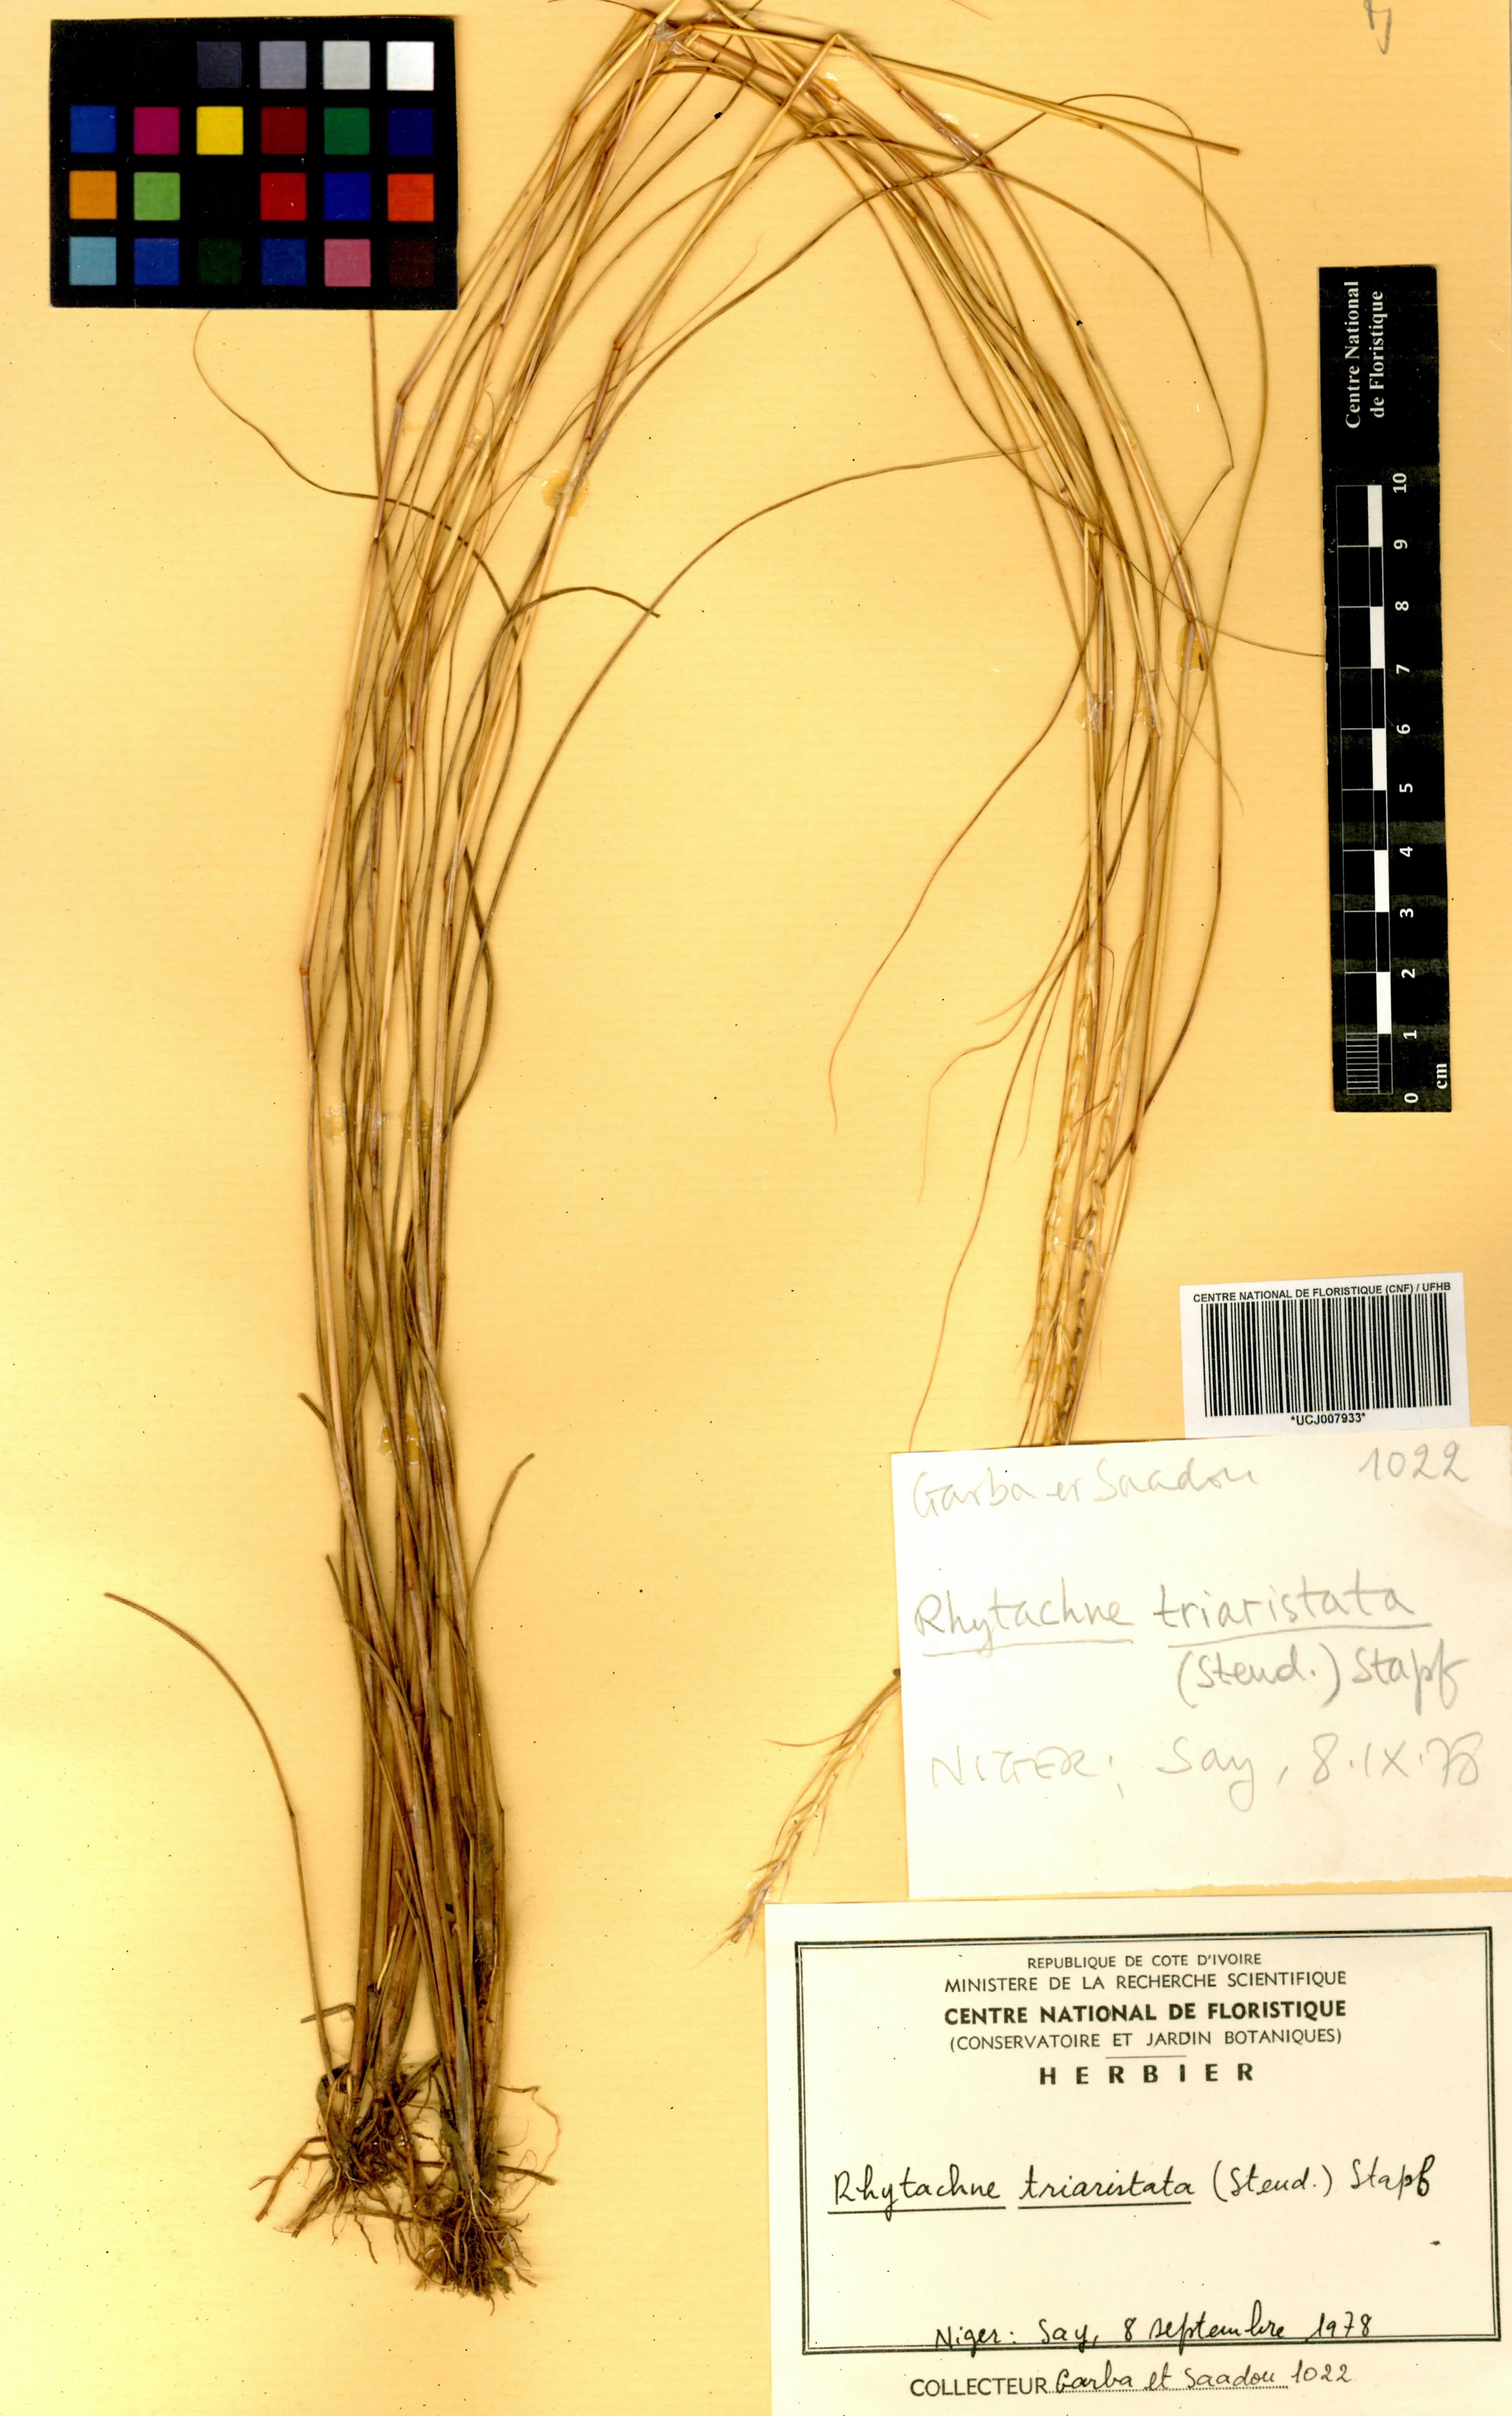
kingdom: Plantae
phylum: Tracheophyta
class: Liliopsida
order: Poales
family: Poaceae
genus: Rhytachne
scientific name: Rhytachne triaristata
